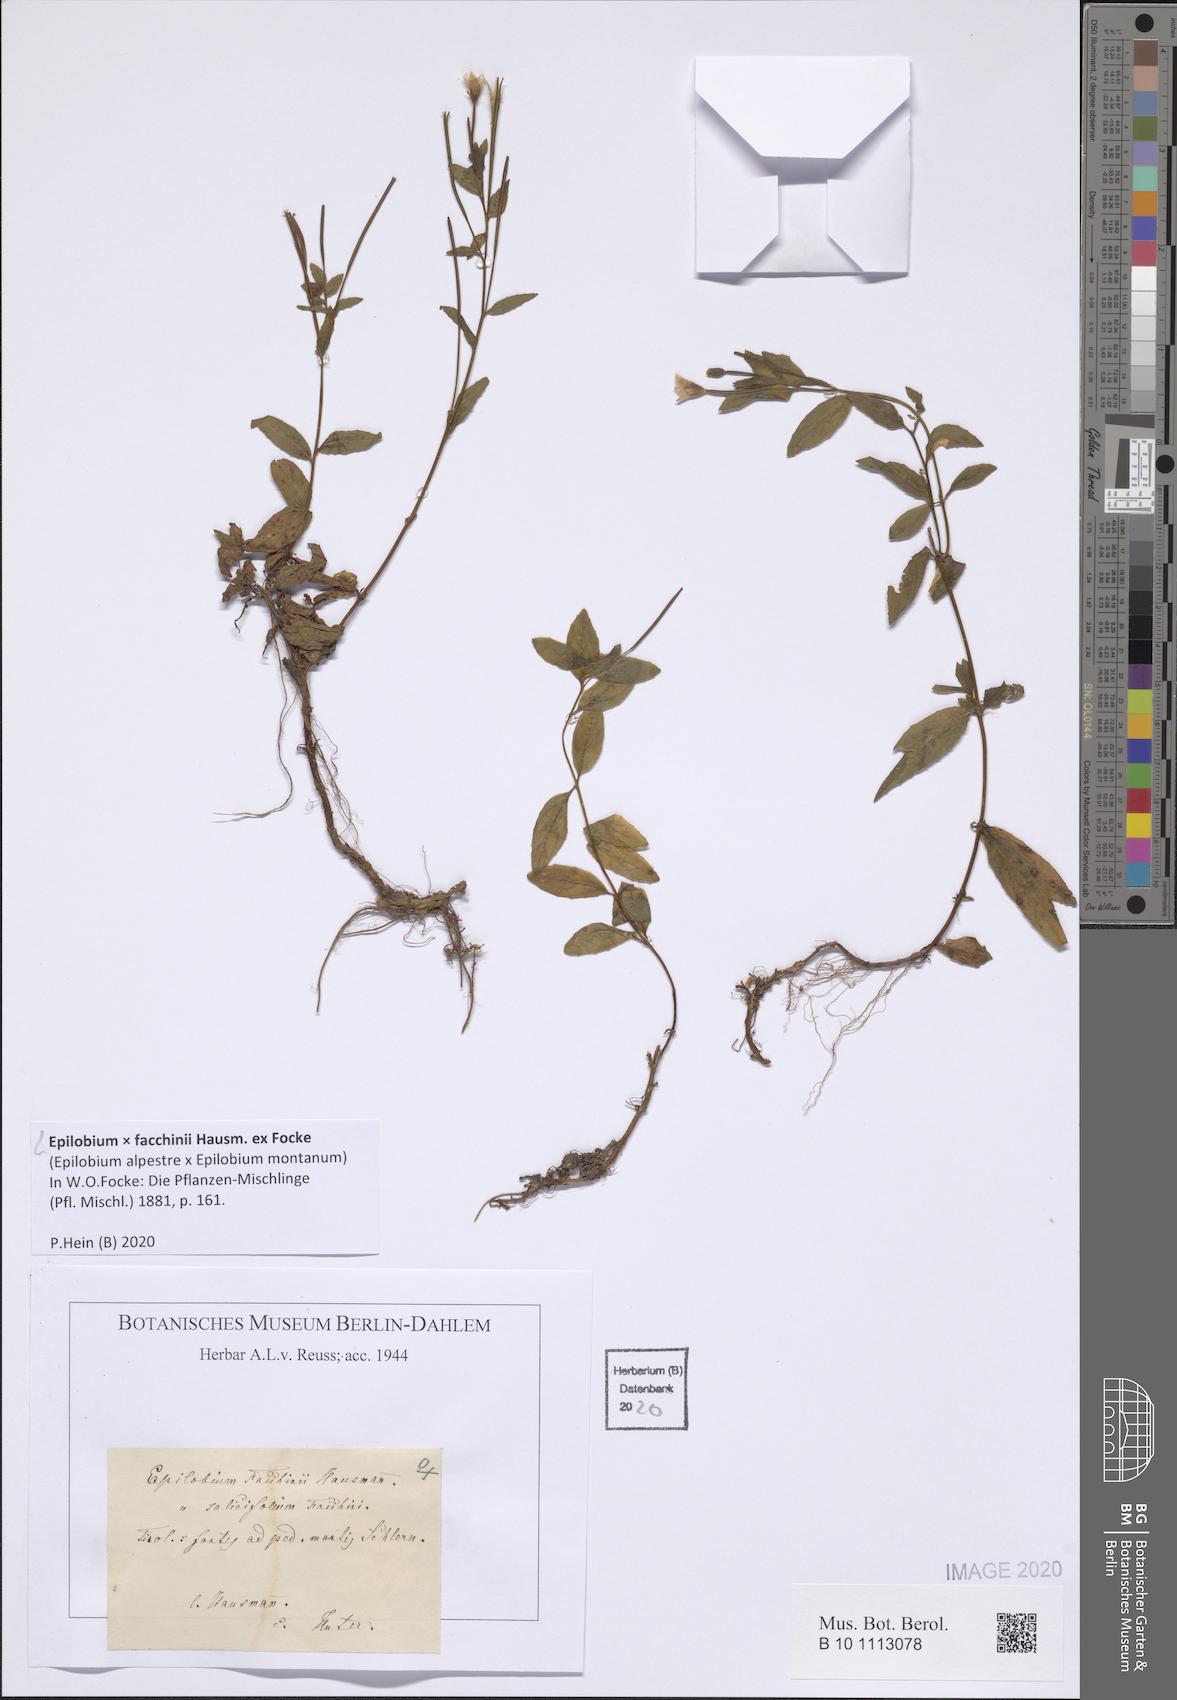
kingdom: Plantae
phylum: Tracheophyta
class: Magnoliopsida
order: Myrtales
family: Onagraceae
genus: Epilobium
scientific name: Epilobium facchini
